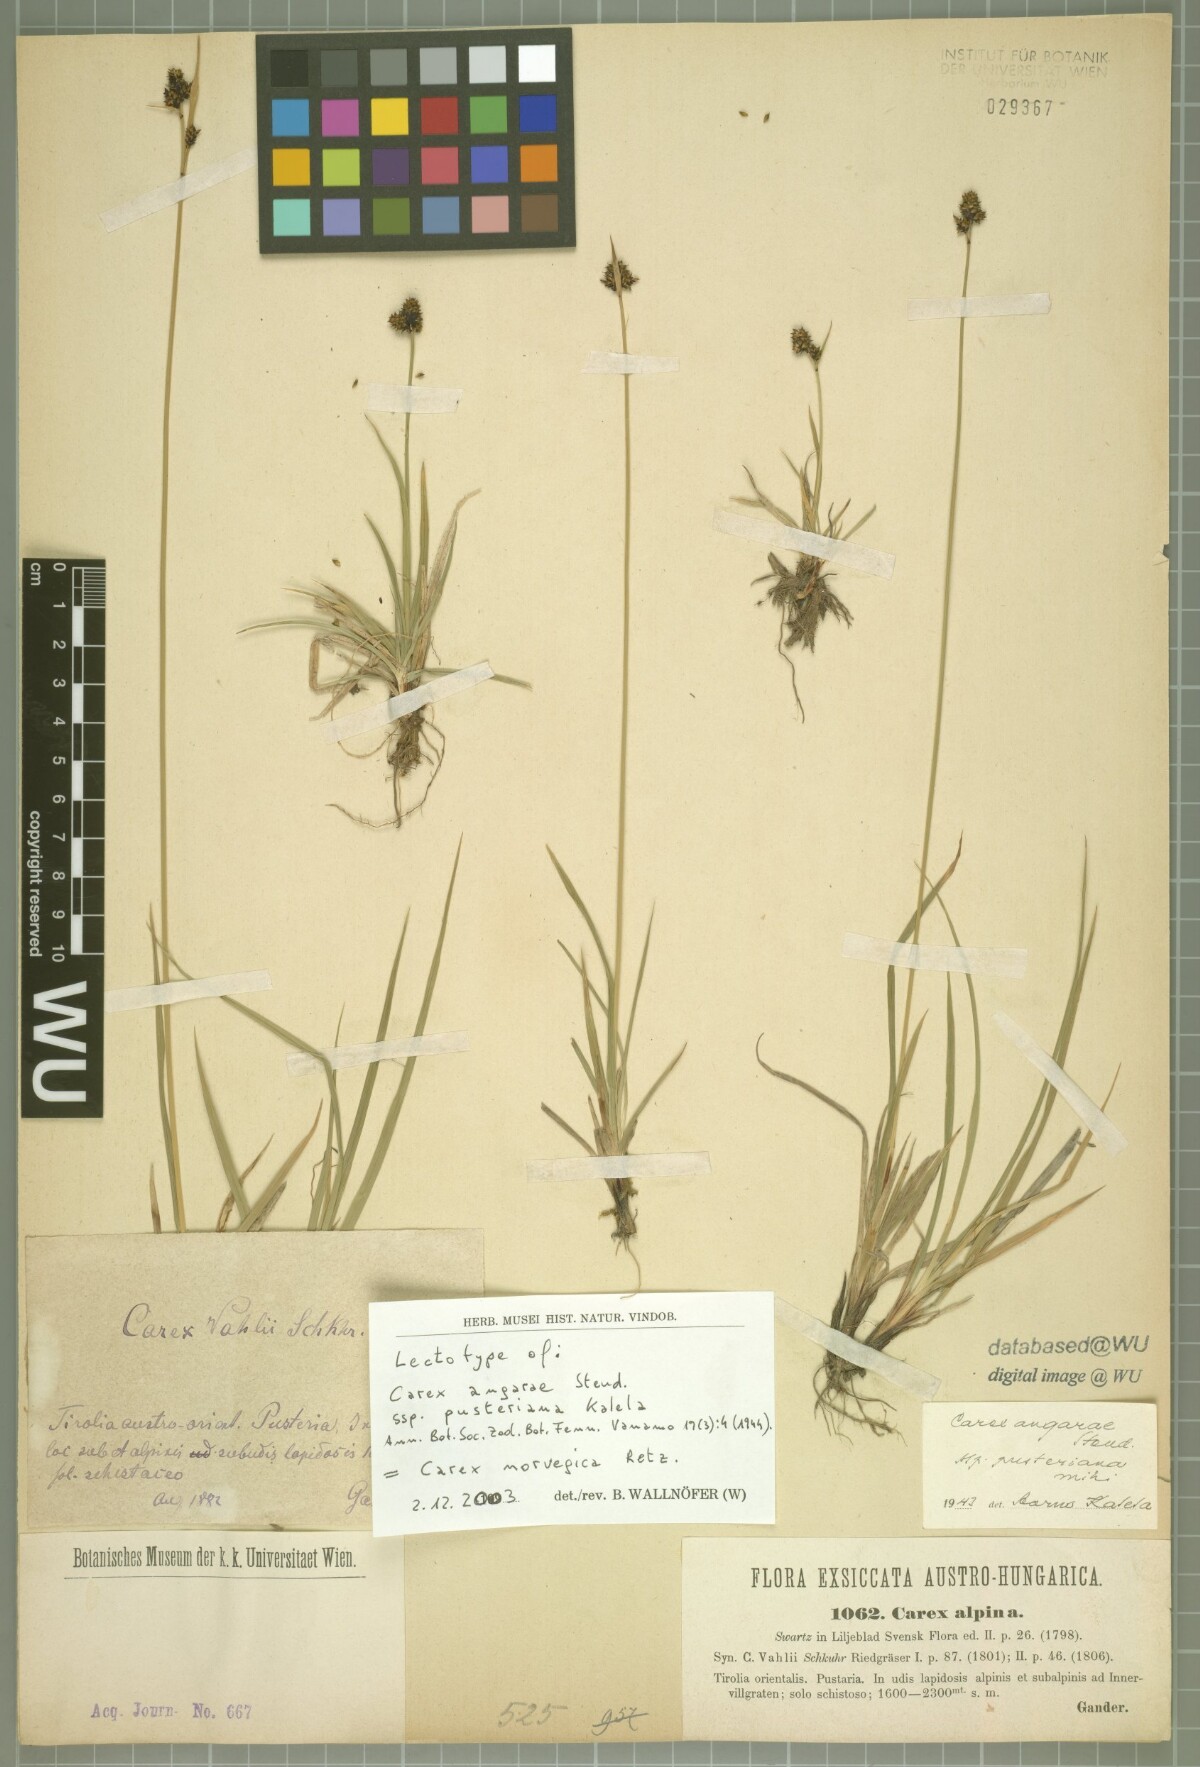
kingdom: Plantae
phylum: Tracheophyta
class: Liliopsida
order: Poales
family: Cyperaceae
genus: Carex
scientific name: Carex norvegica
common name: Close-headed alpine-sedge
